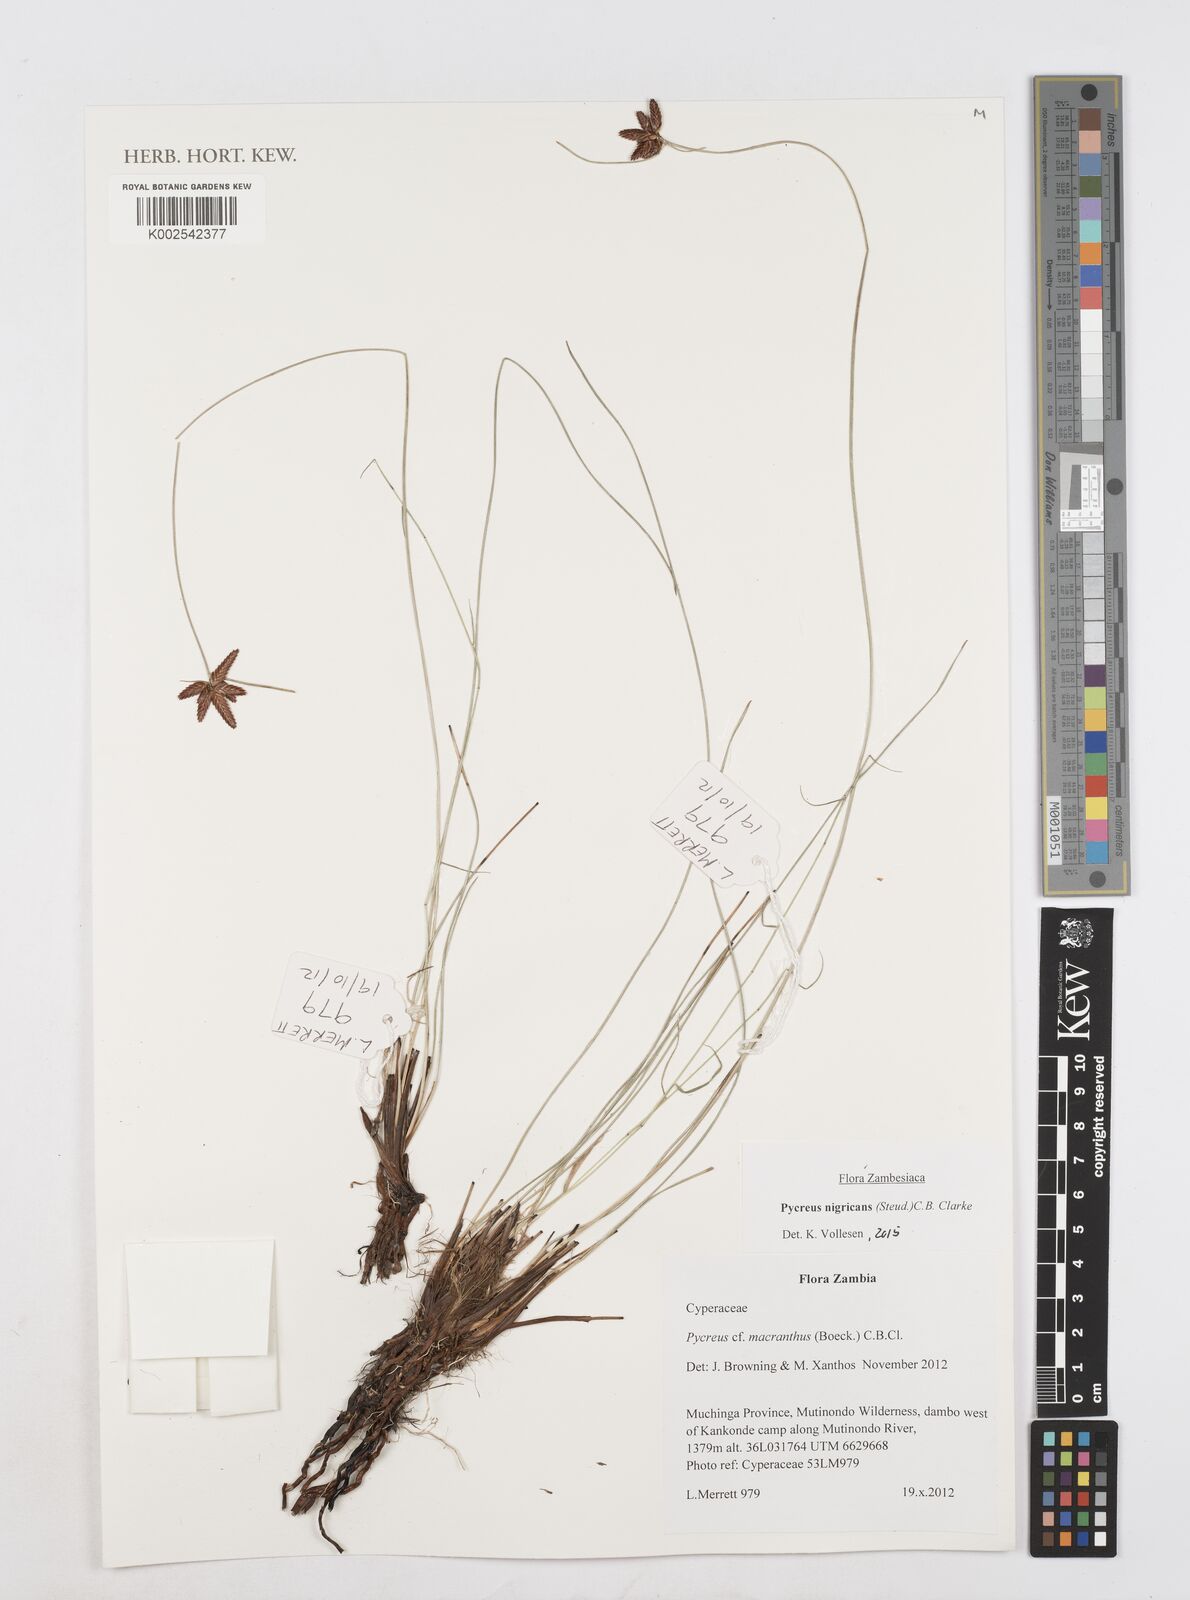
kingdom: Plantae
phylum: Tracheophyta
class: Liliopsida
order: Poales
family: Cyperaceae
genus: Cyperus
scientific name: Cyperus nigricans
